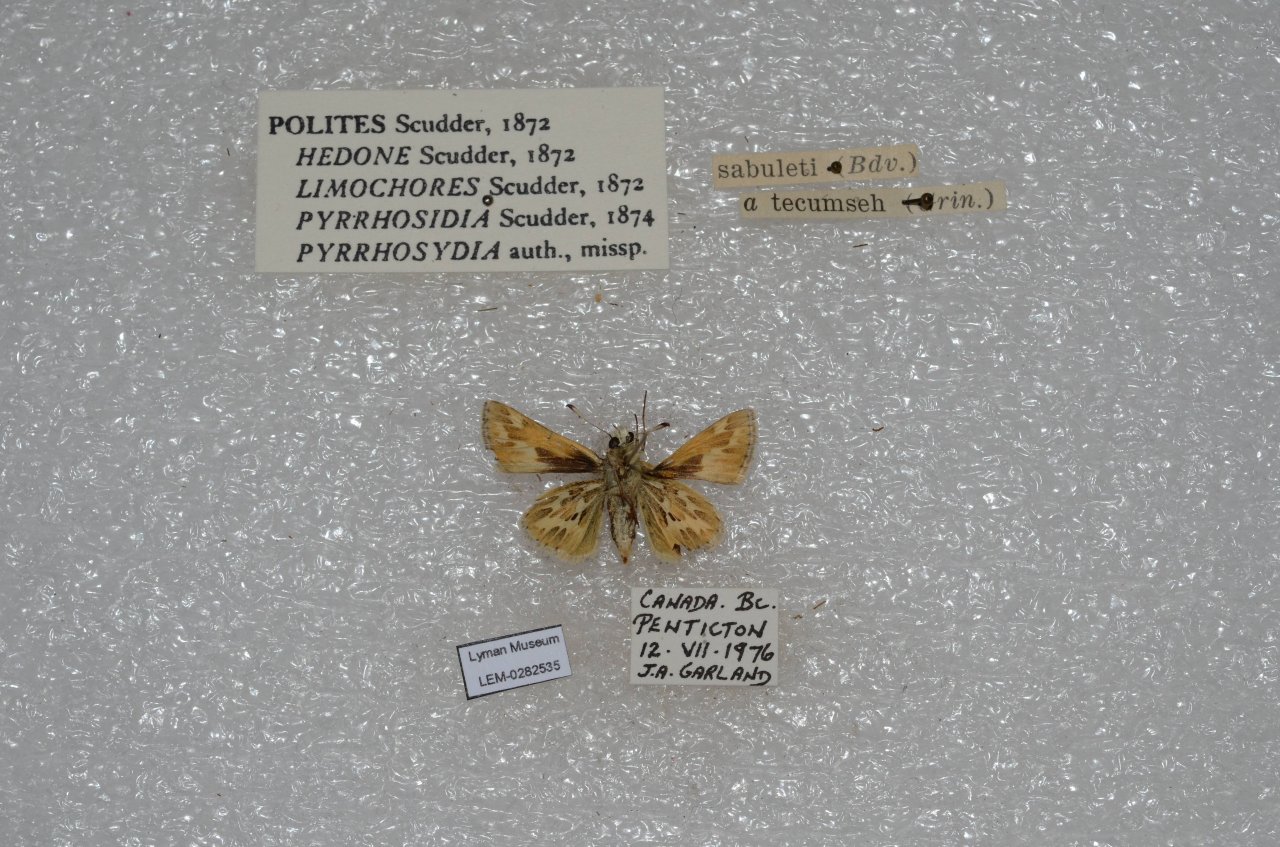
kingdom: Animalia
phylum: Arthropoda
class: Insecta
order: Lepidoptera
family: Hesperiidae
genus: Polites
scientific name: Polites sabuleti
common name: Sandhill Skipper
